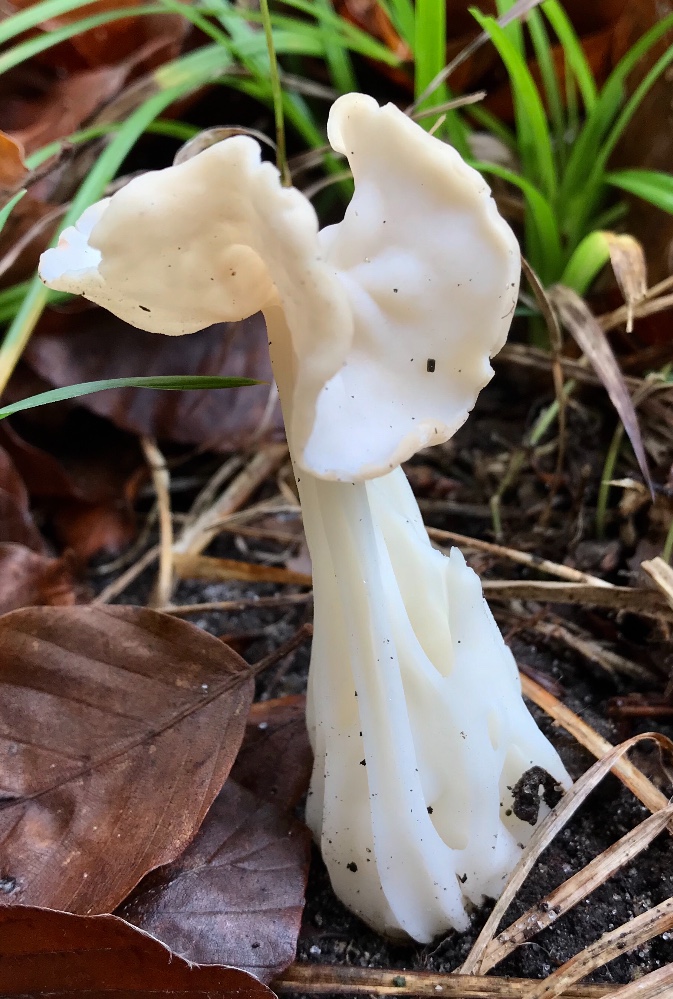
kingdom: Fungi
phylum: Ascomycota
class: Pezizomycetes
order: Pezizales
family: Helvellaceae
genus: Helvella
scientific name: Helvella crispa
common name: kruset foldhat
